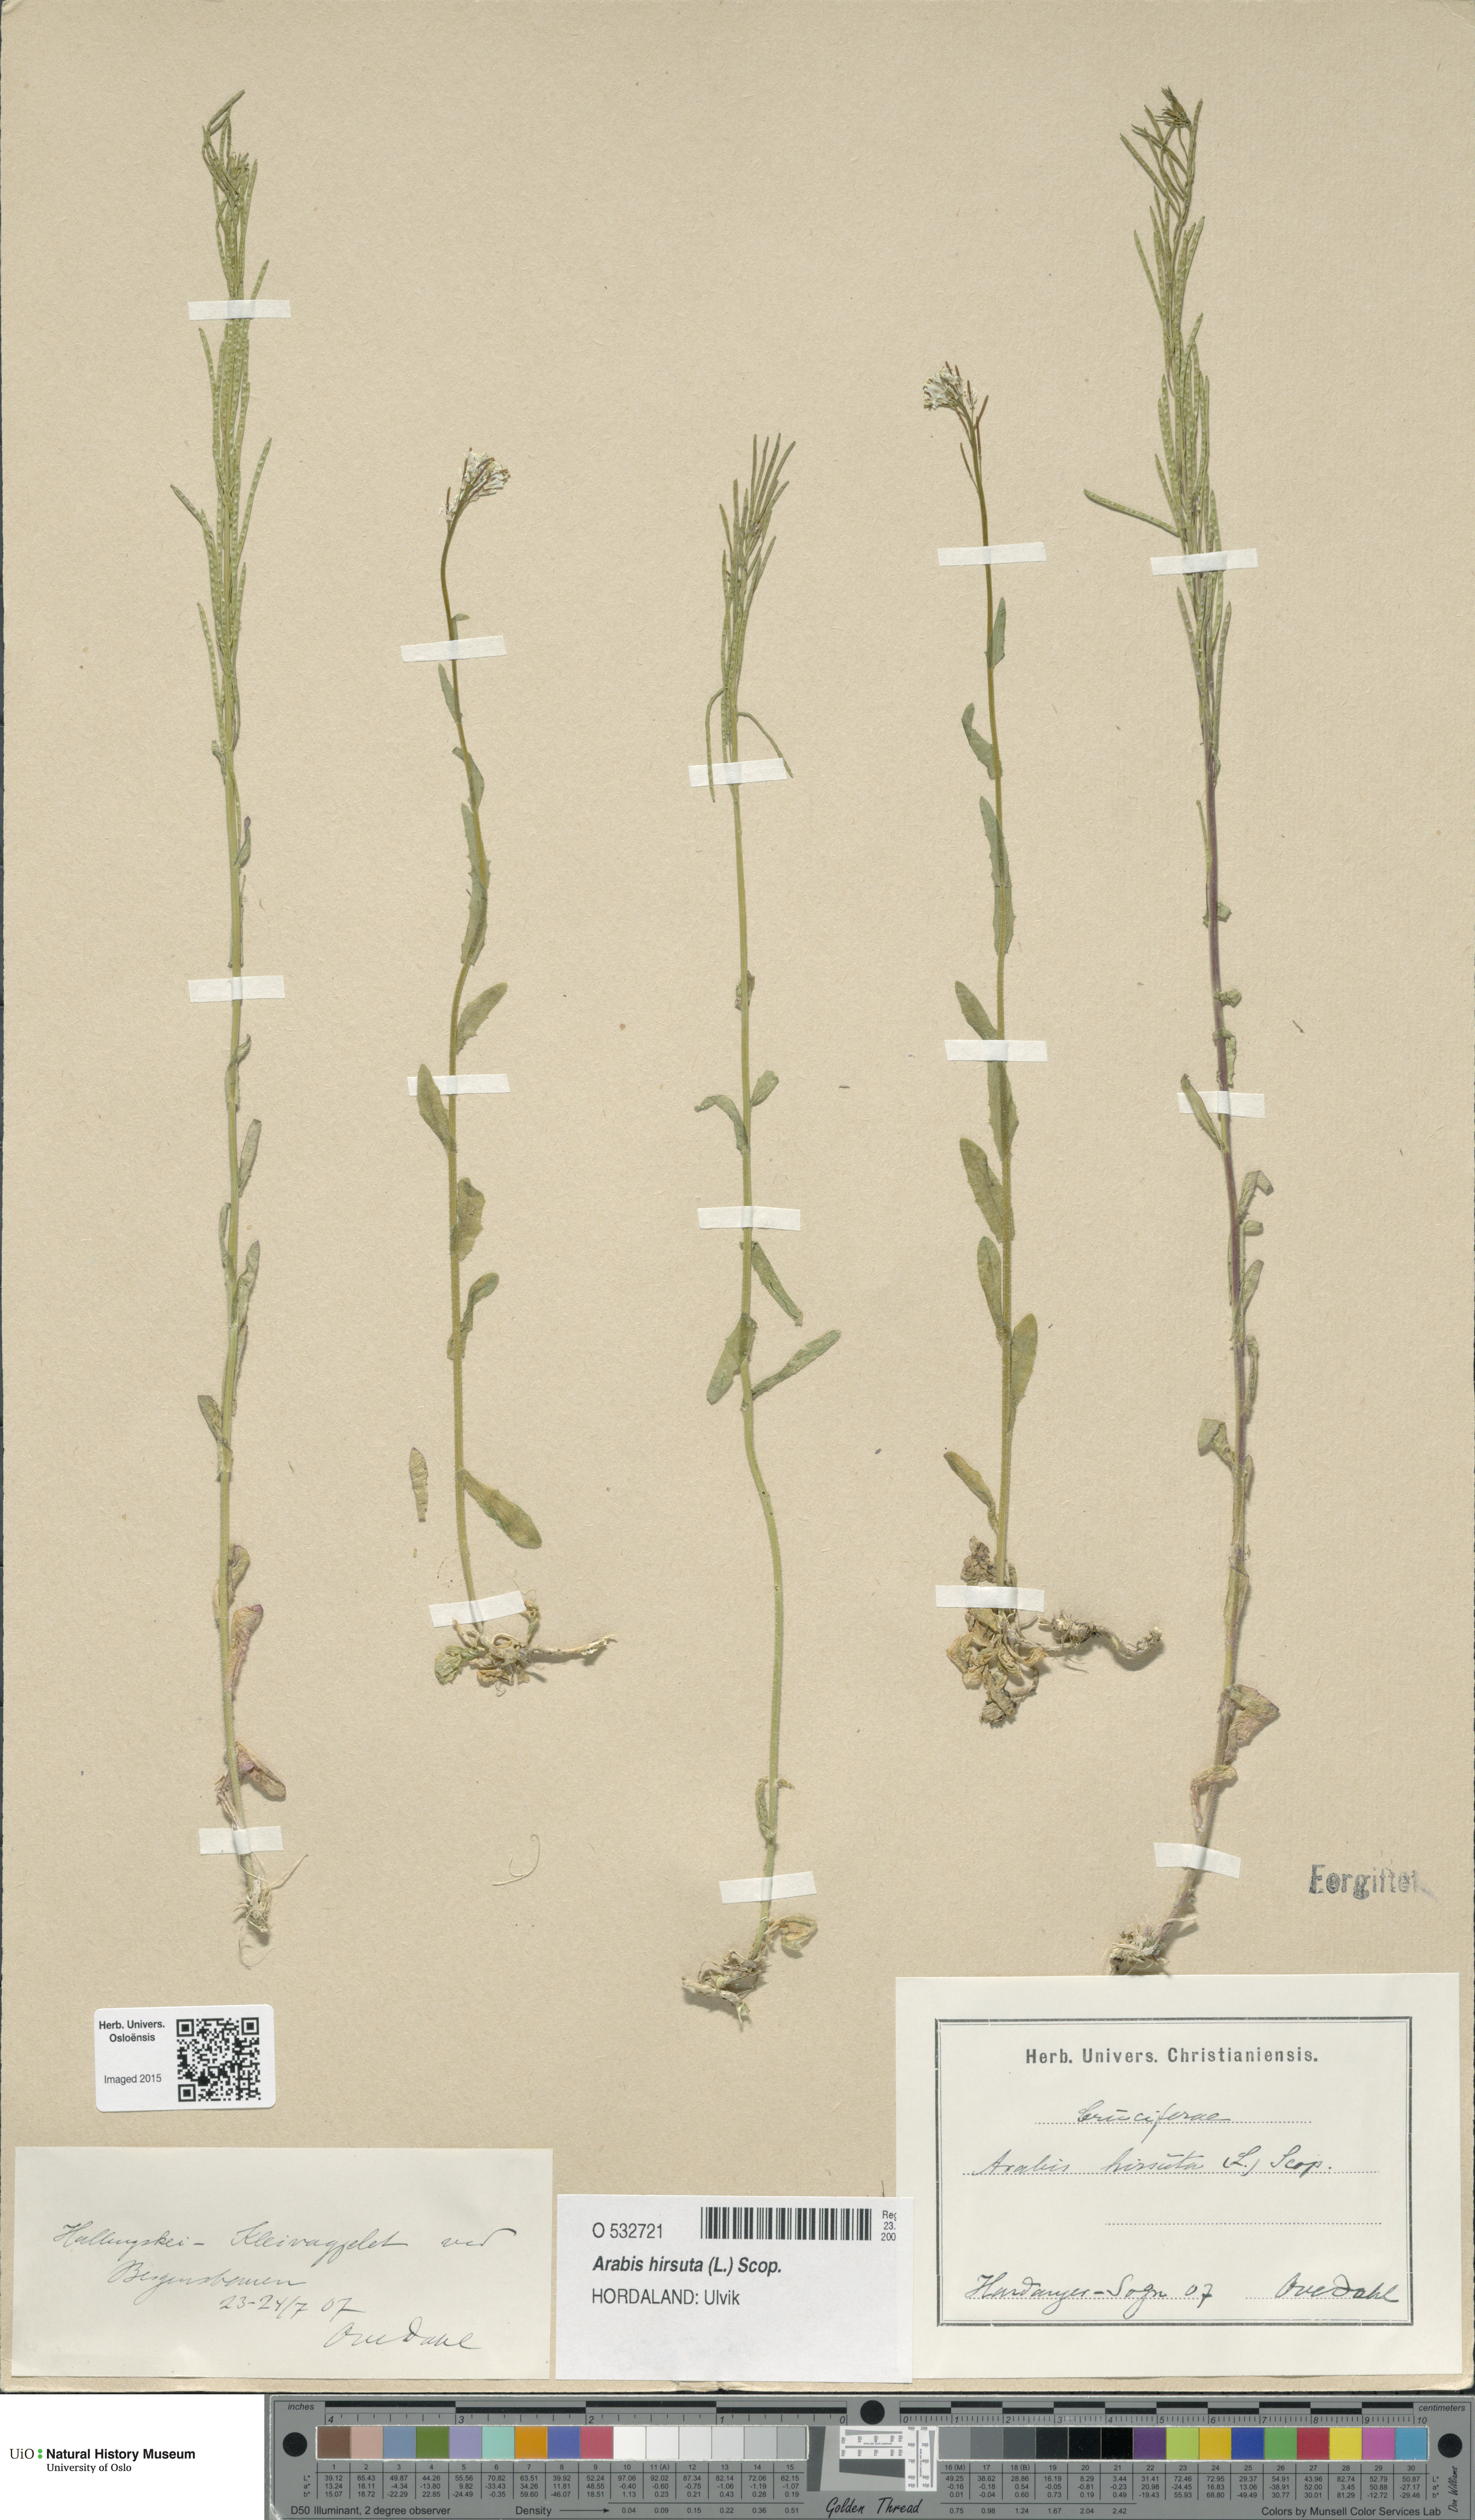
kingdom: Plantae
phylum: Tracheophyta
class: Magnoliopsida
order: Brassicales
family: Brassicaceae
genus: Arabis
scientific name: Arabis hirsuta
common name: Hairy rock-cress
